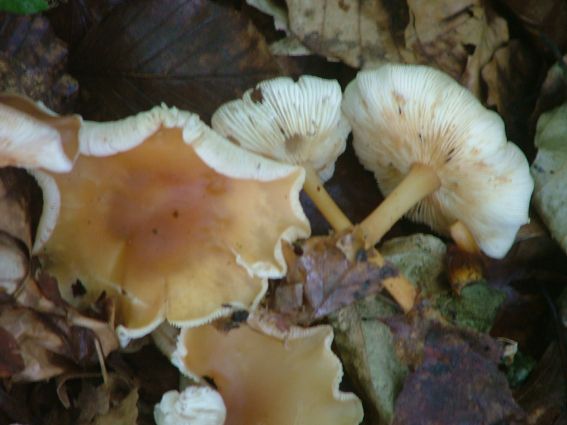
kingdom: Fungi
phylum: Basidiomycota
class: Agaricomycetes
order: Agaricales
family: Omphalotaceae
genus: Gymnopus
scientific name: Gymnopus dryophilus
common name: løv-fladhat
